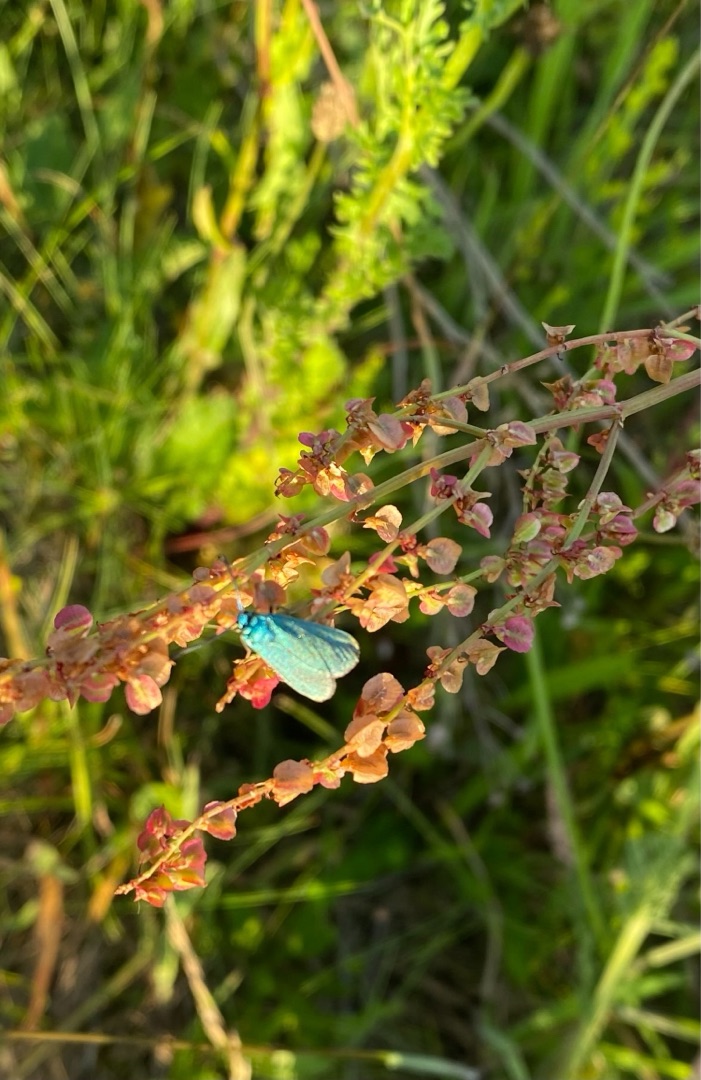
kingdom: Animalia
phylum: Arthropoda
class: Insecta
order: Lepidoptera
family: Zygaenidae
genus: Adscita
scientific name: Adscita statices
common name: Metalvinge
